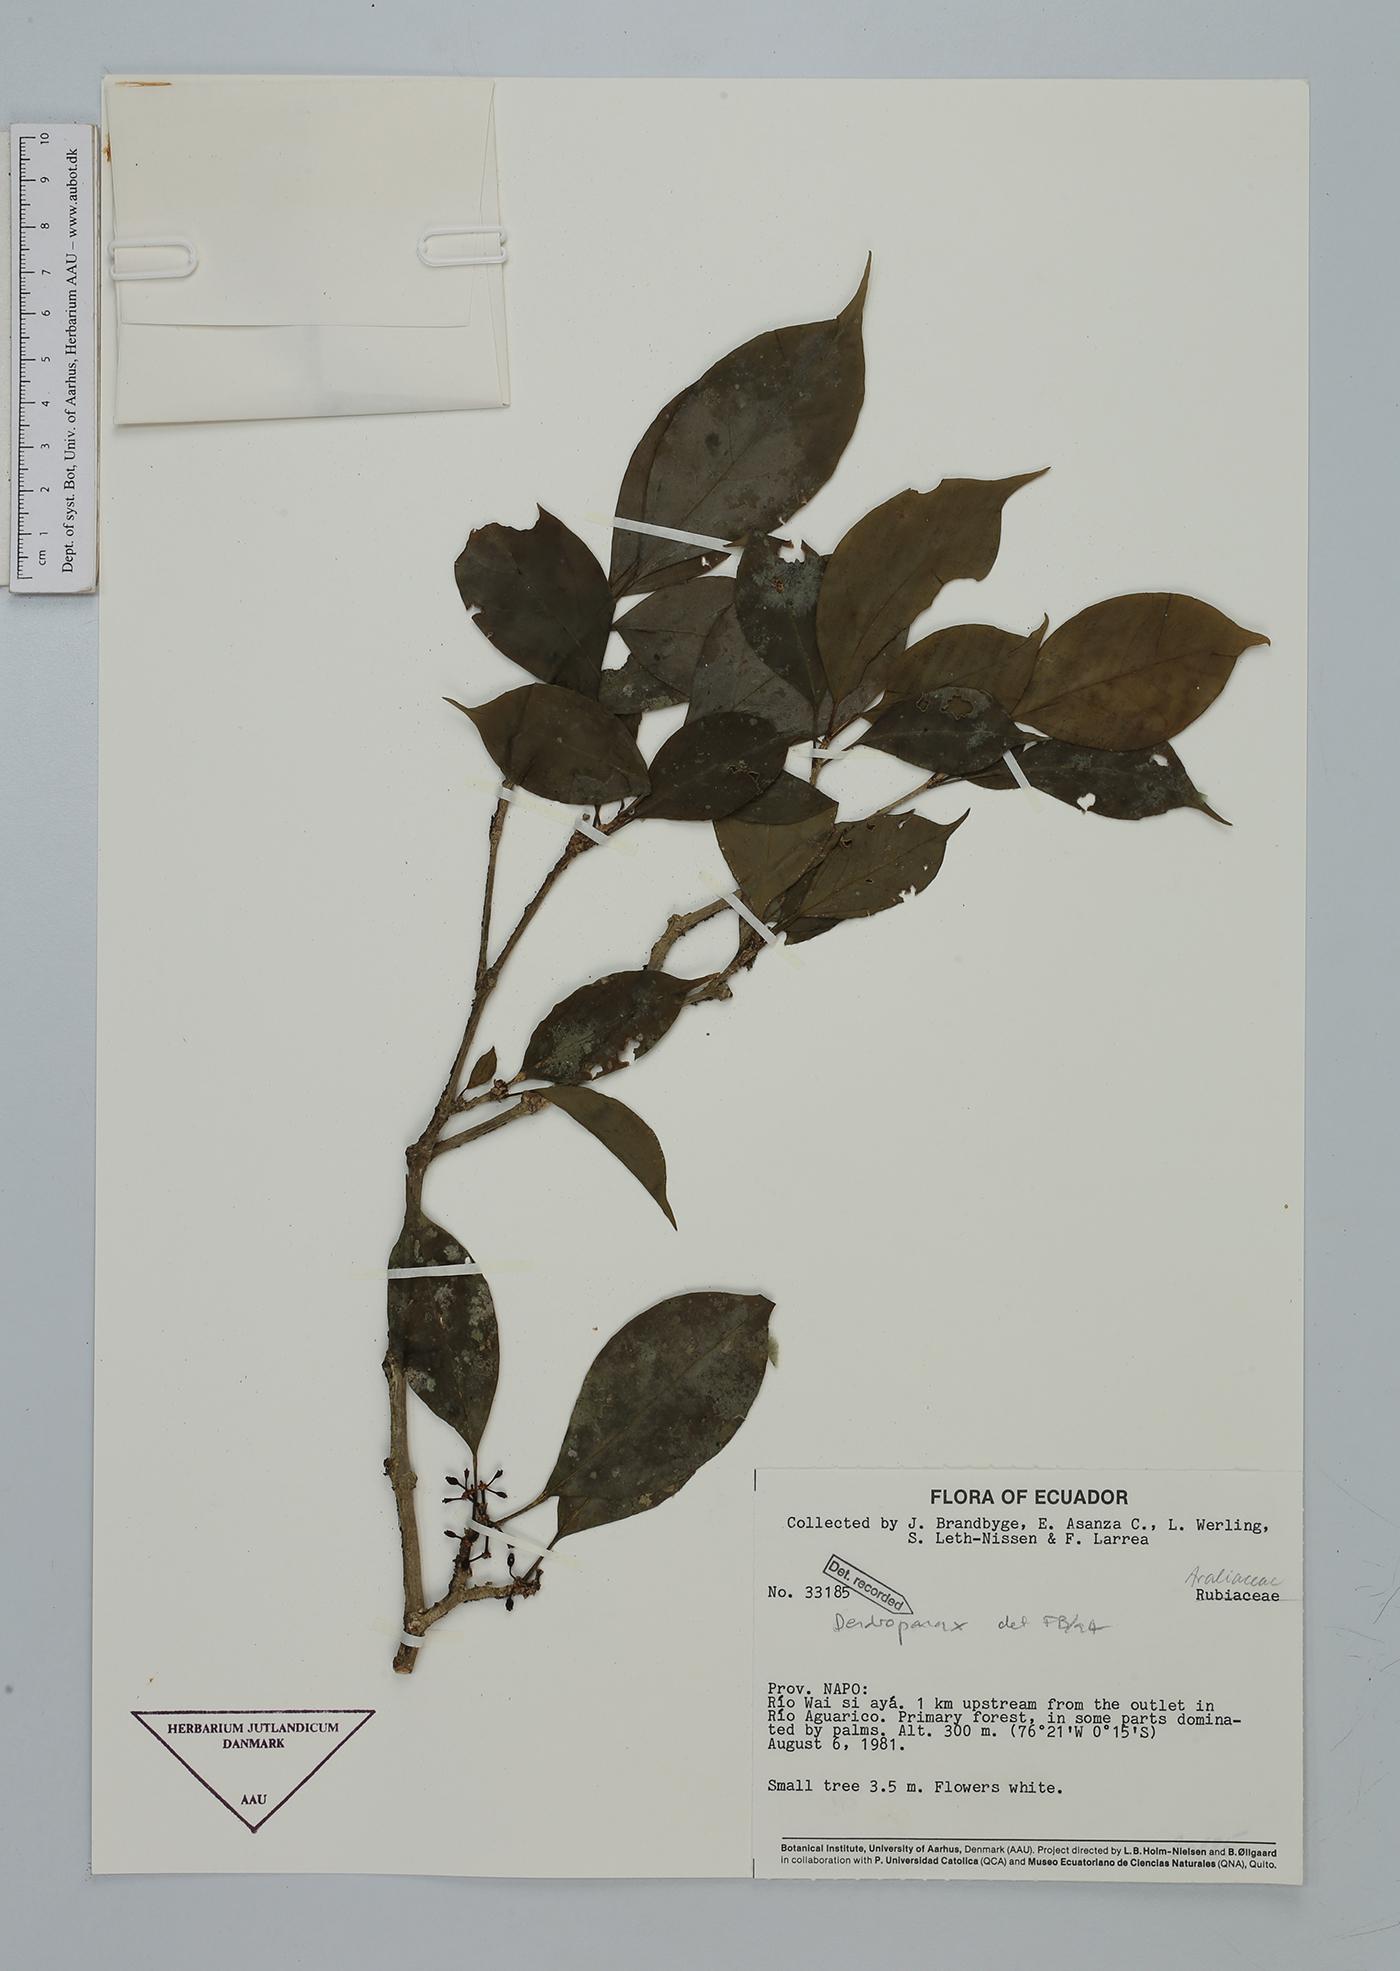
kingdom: Plantae
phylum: Tracheophyta
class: Magnoliopsida
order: Apiales
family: Araliaceae
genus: Dendropanax
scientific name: Dendropanax
